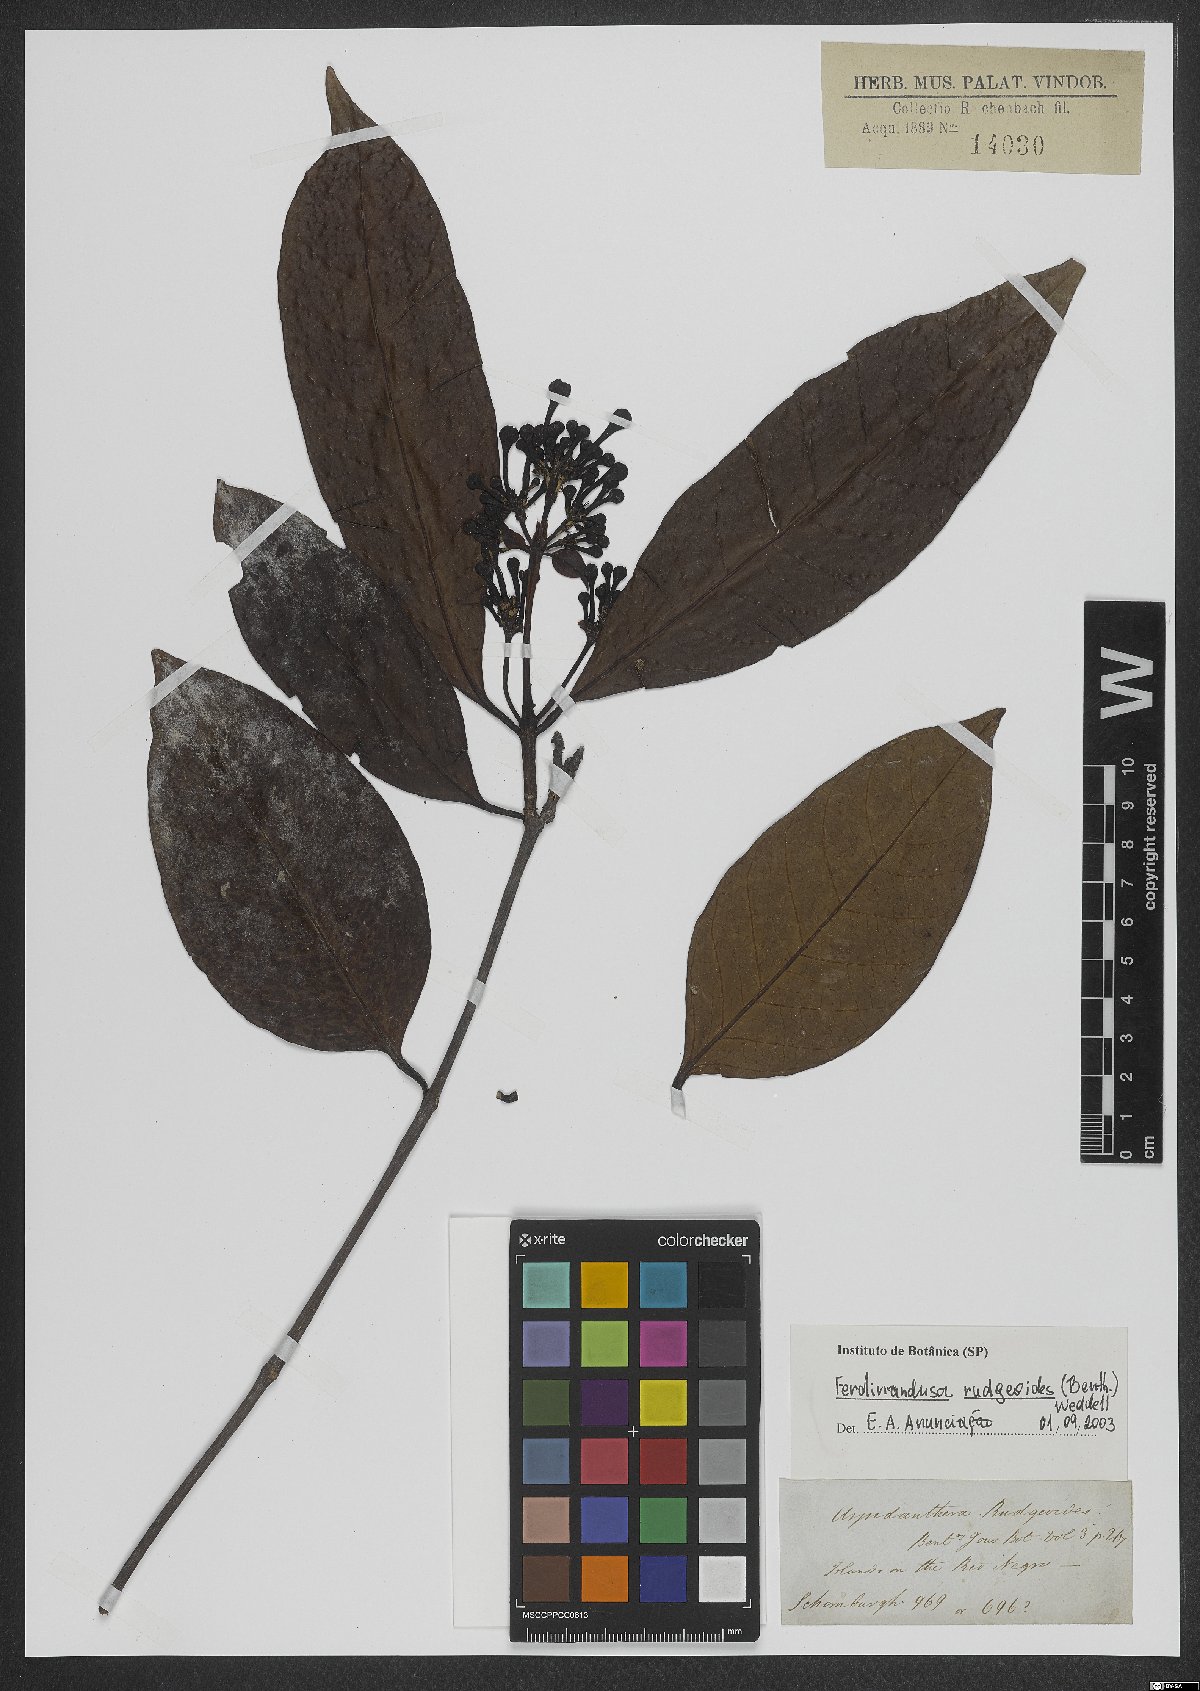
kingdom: Plantae
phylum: Tracheophyta
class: Magnoliopsida
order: Gentianales
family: Rubiaceae
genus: Ferdinandusa
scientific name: Ferdinandusa rudgeoides
